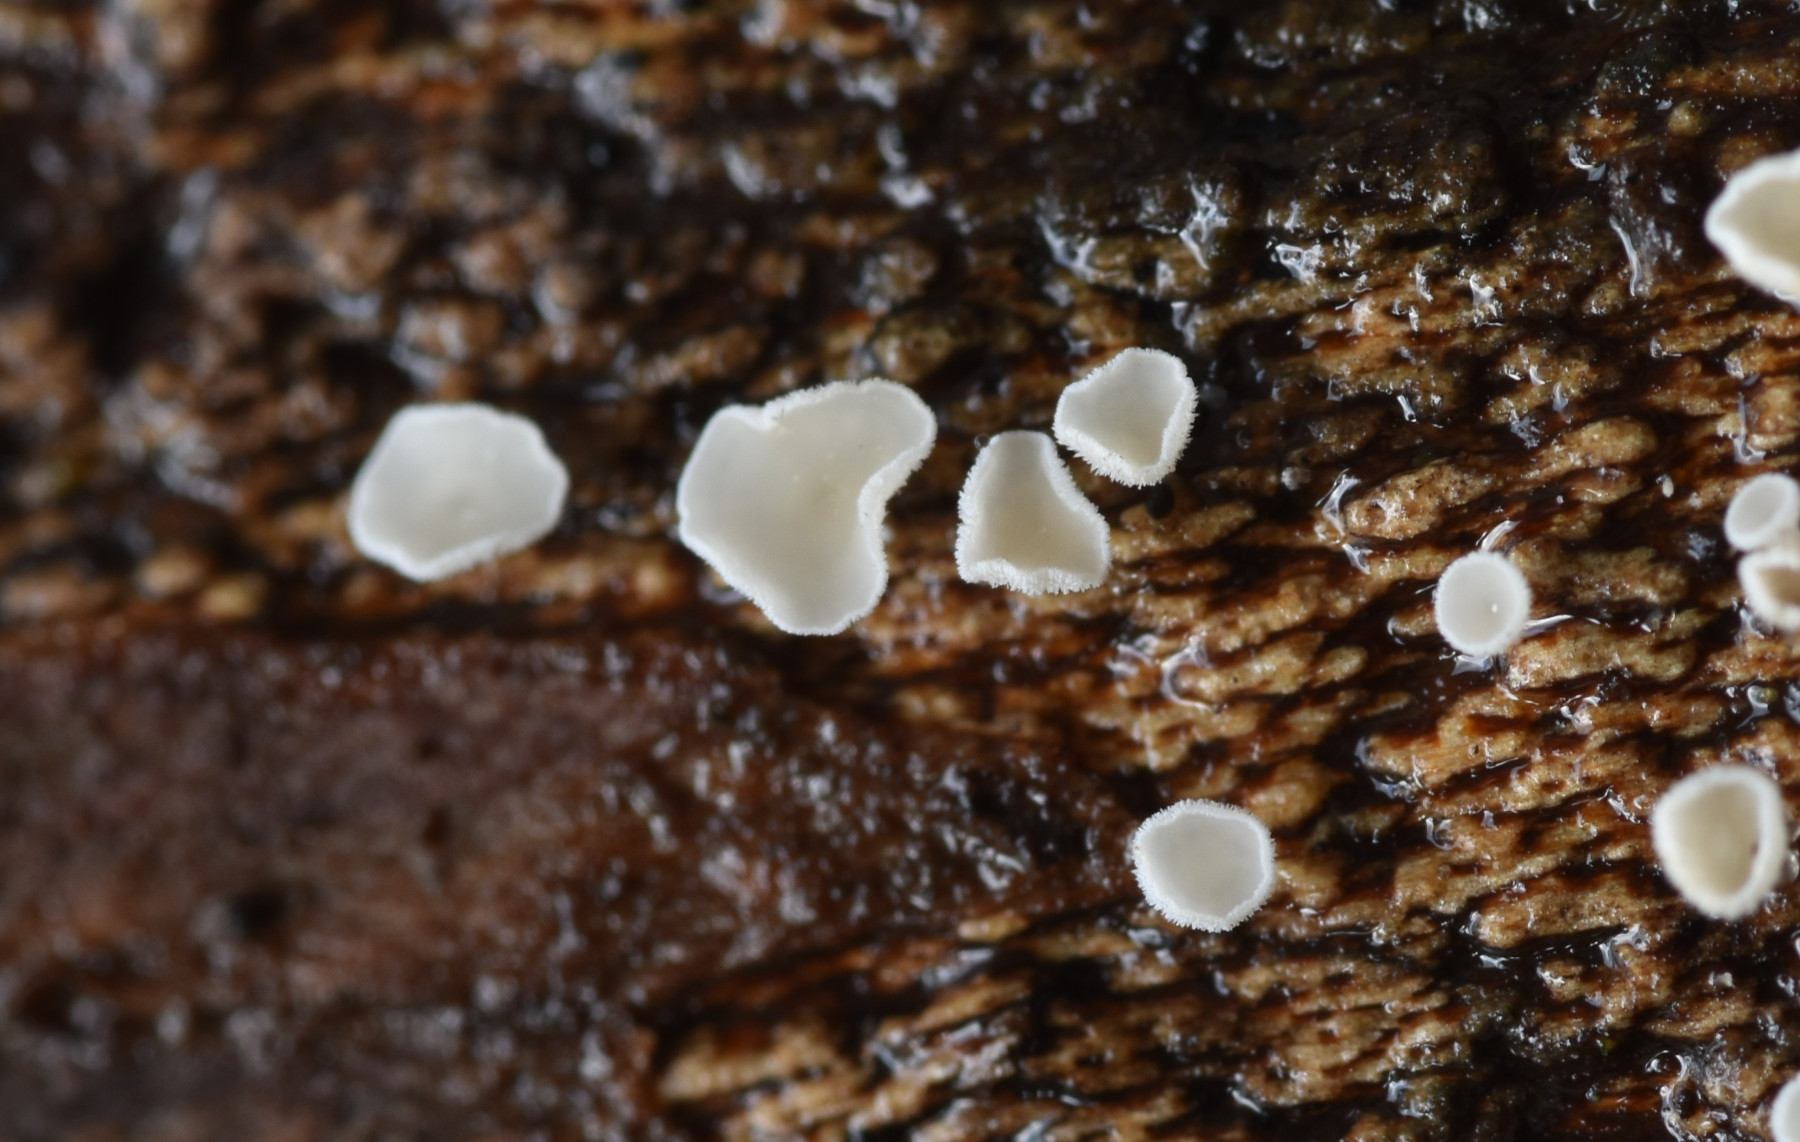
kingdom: Fungi
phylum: Ascomycota
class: Leotiomycetes
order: Helotiales
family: Lachnaceae
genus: Lachnum
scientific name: Lachnum impudicum
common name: vinter-frynseskive
